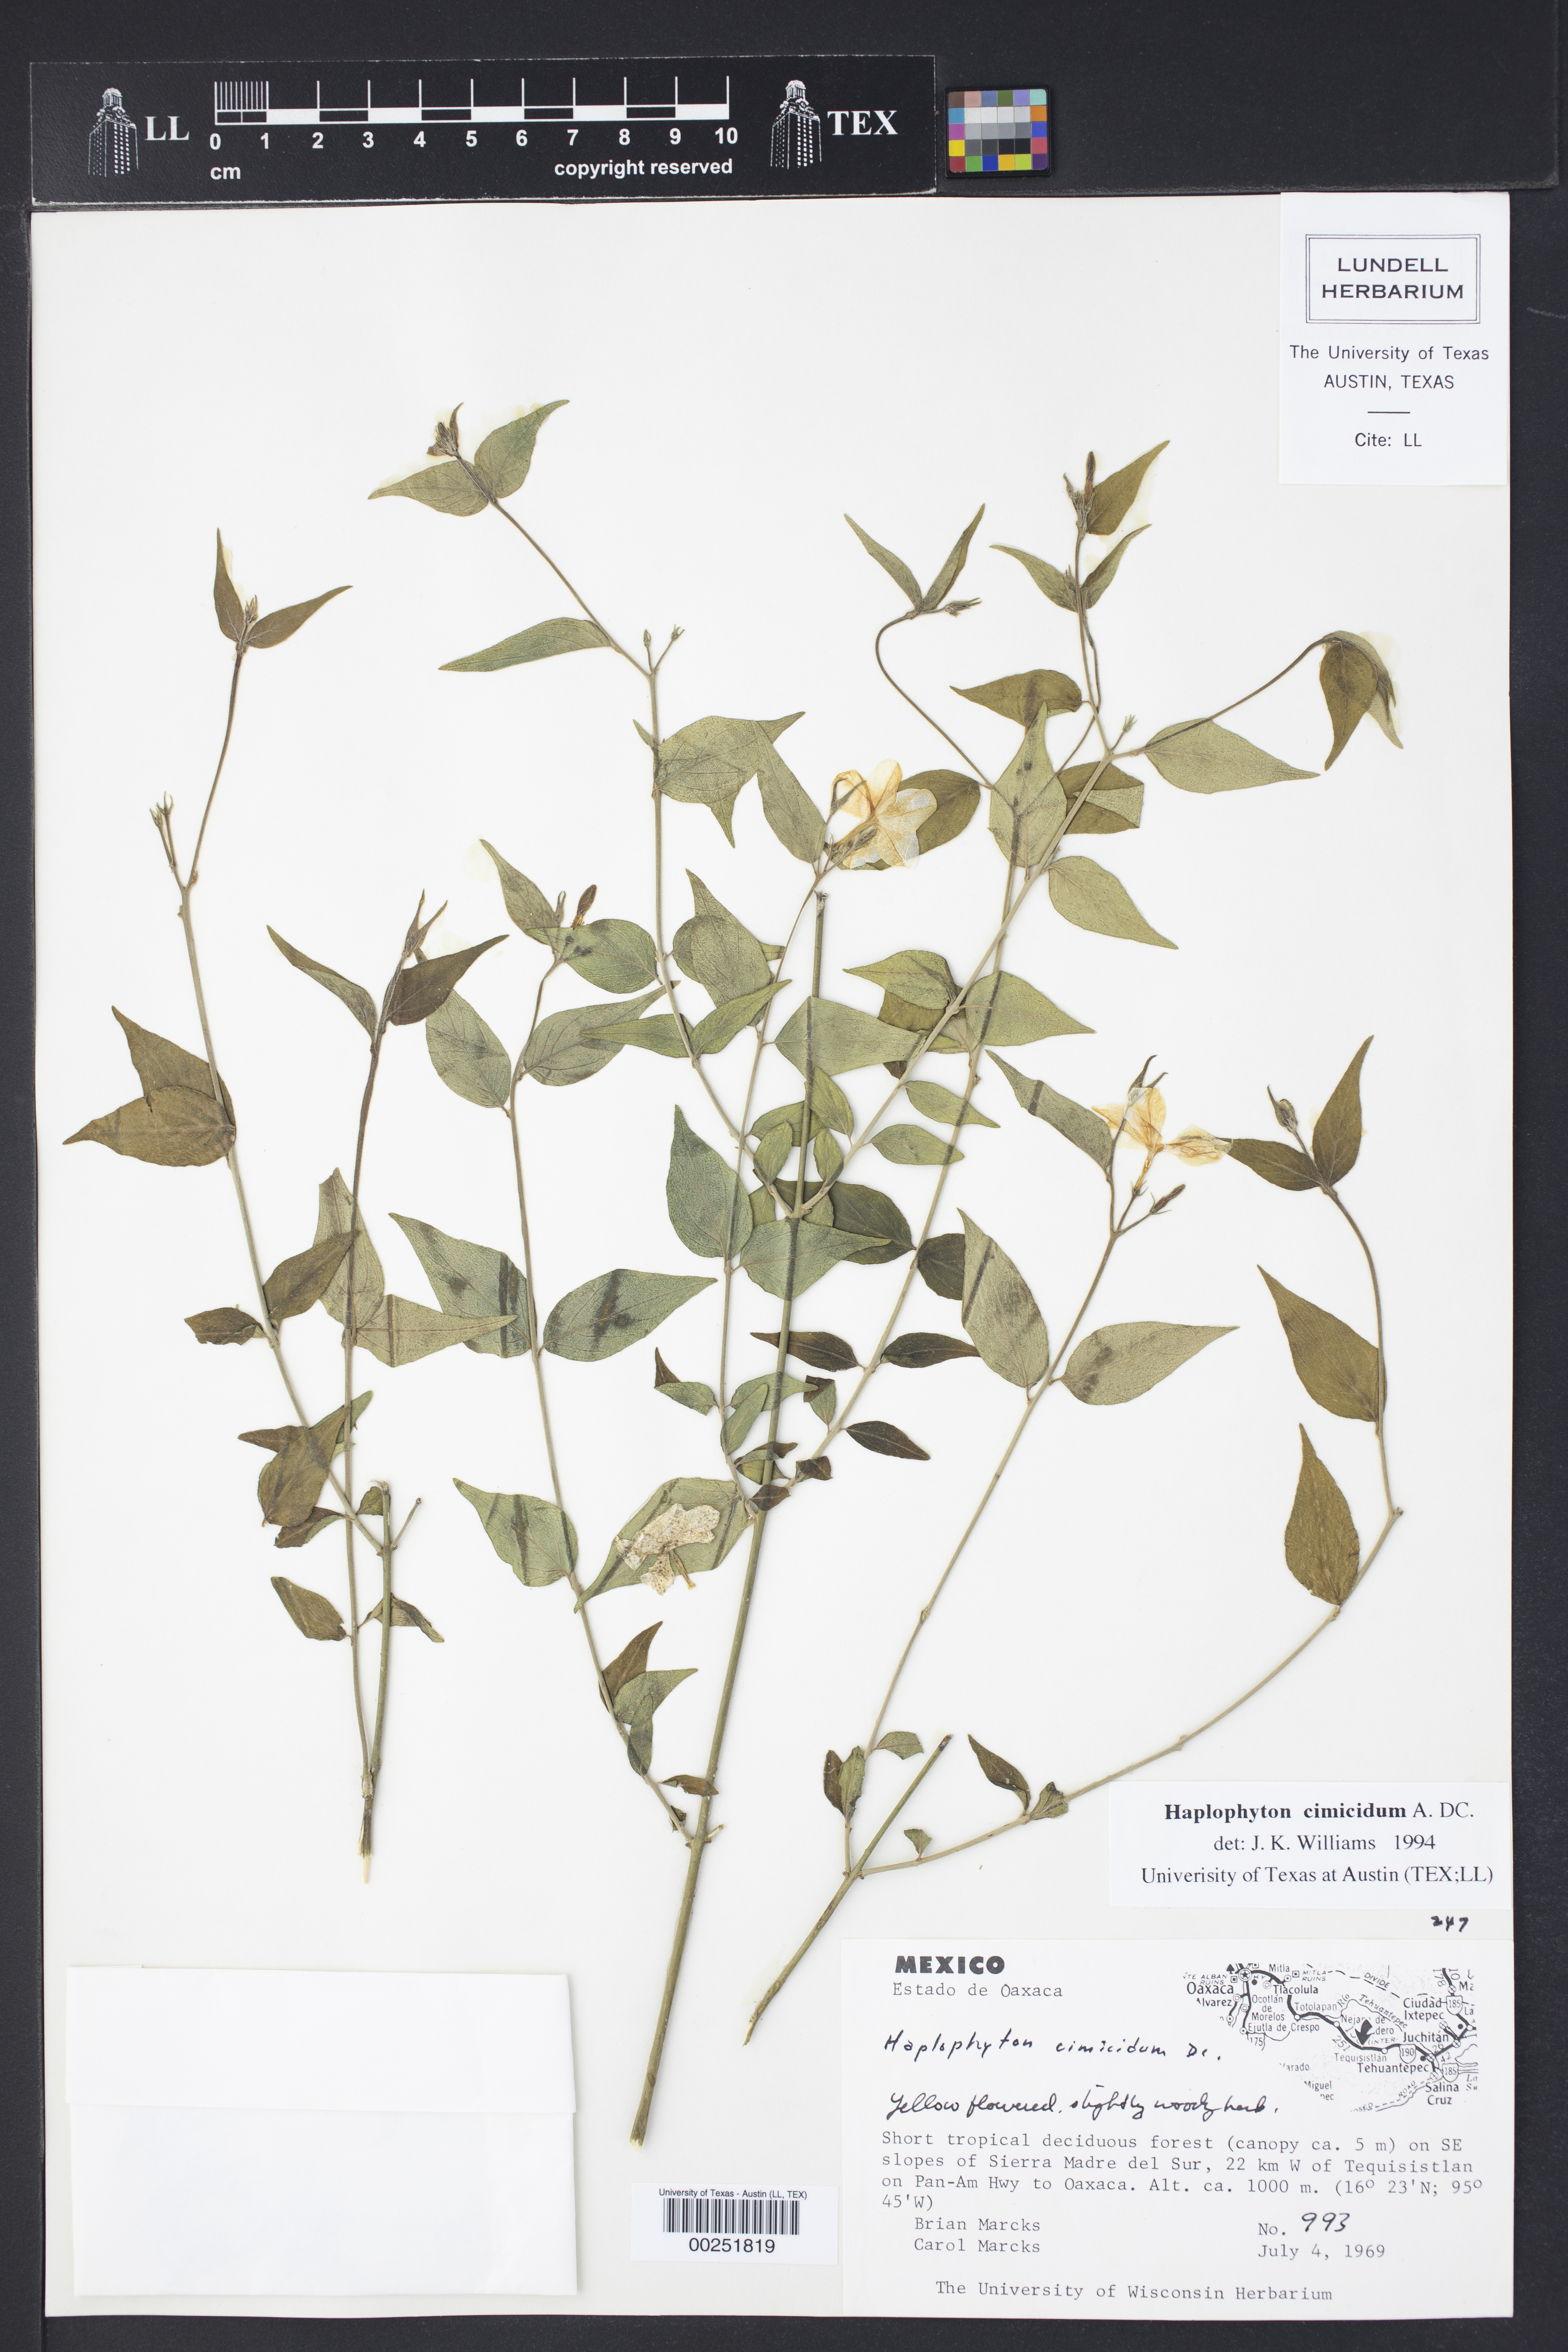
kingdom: Plantae
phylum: Tracheophyta
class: Magnoliopsida
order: Gentianales
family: Apocynaceae
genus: Haplophyton
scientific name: Haplophyton cimicidum
